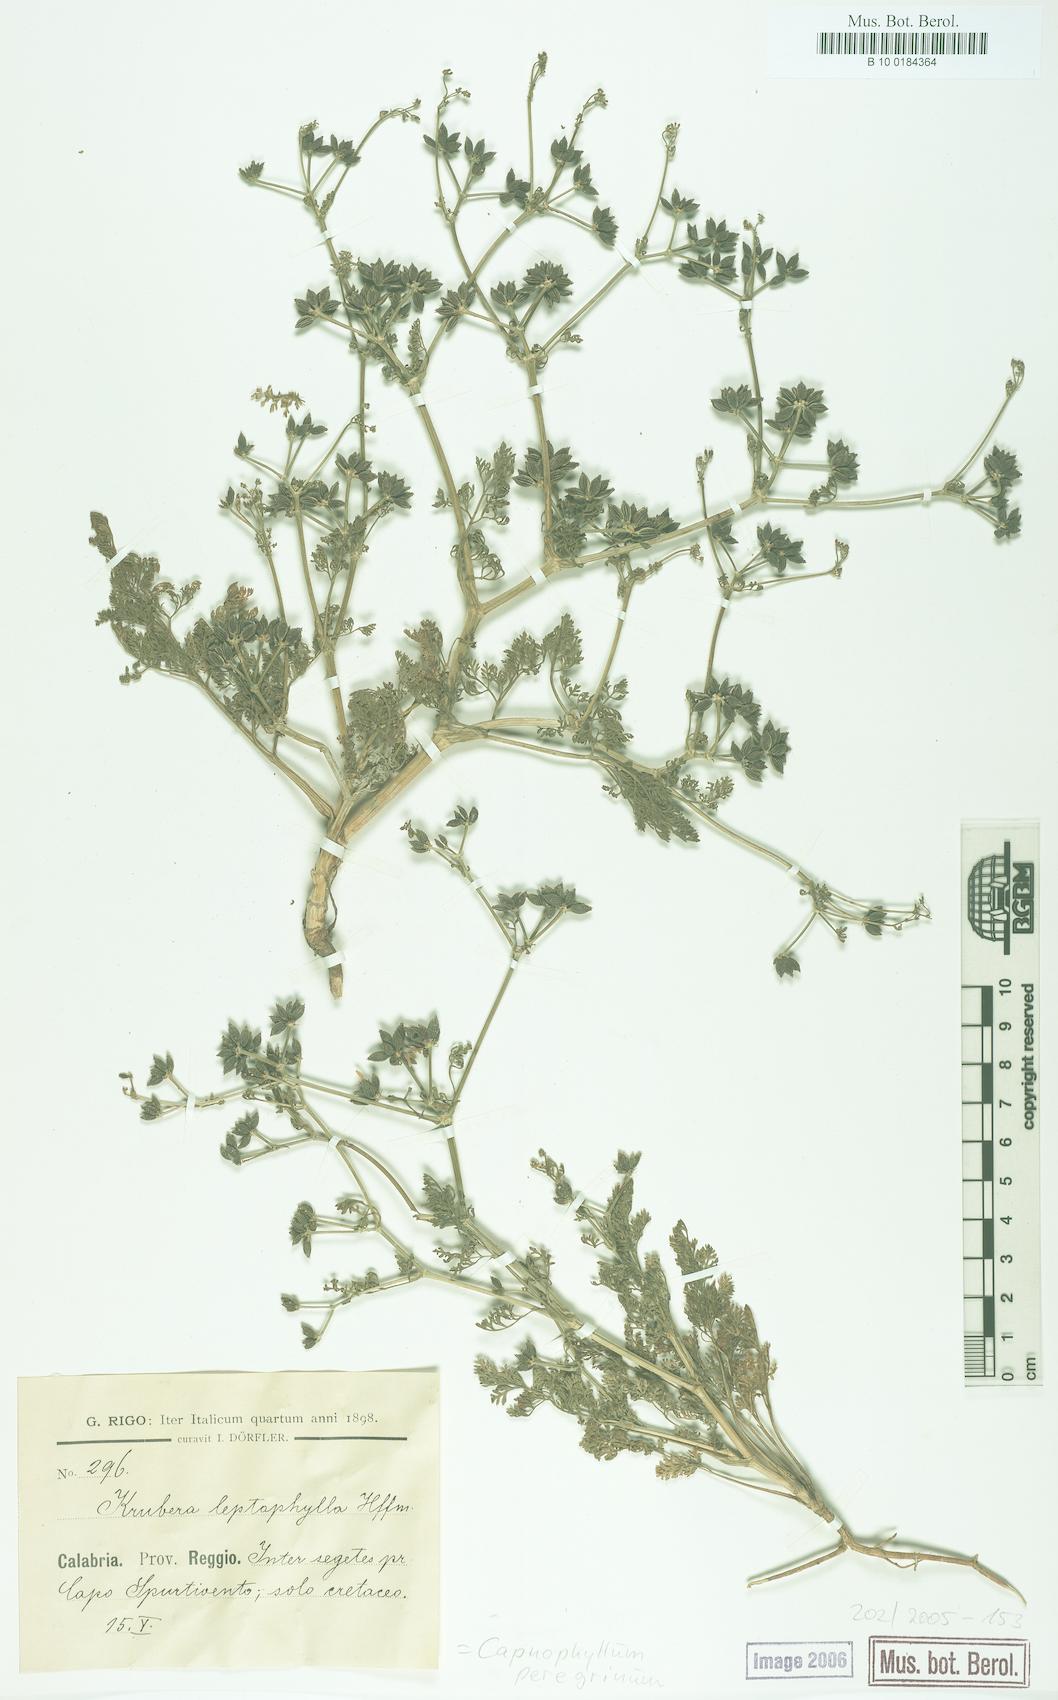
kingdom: Plantae
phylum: Tracheophyta
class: Magnoliopsida
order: Apiales
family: Apiaceae
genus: Krubera
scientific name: Krubera peregrina
